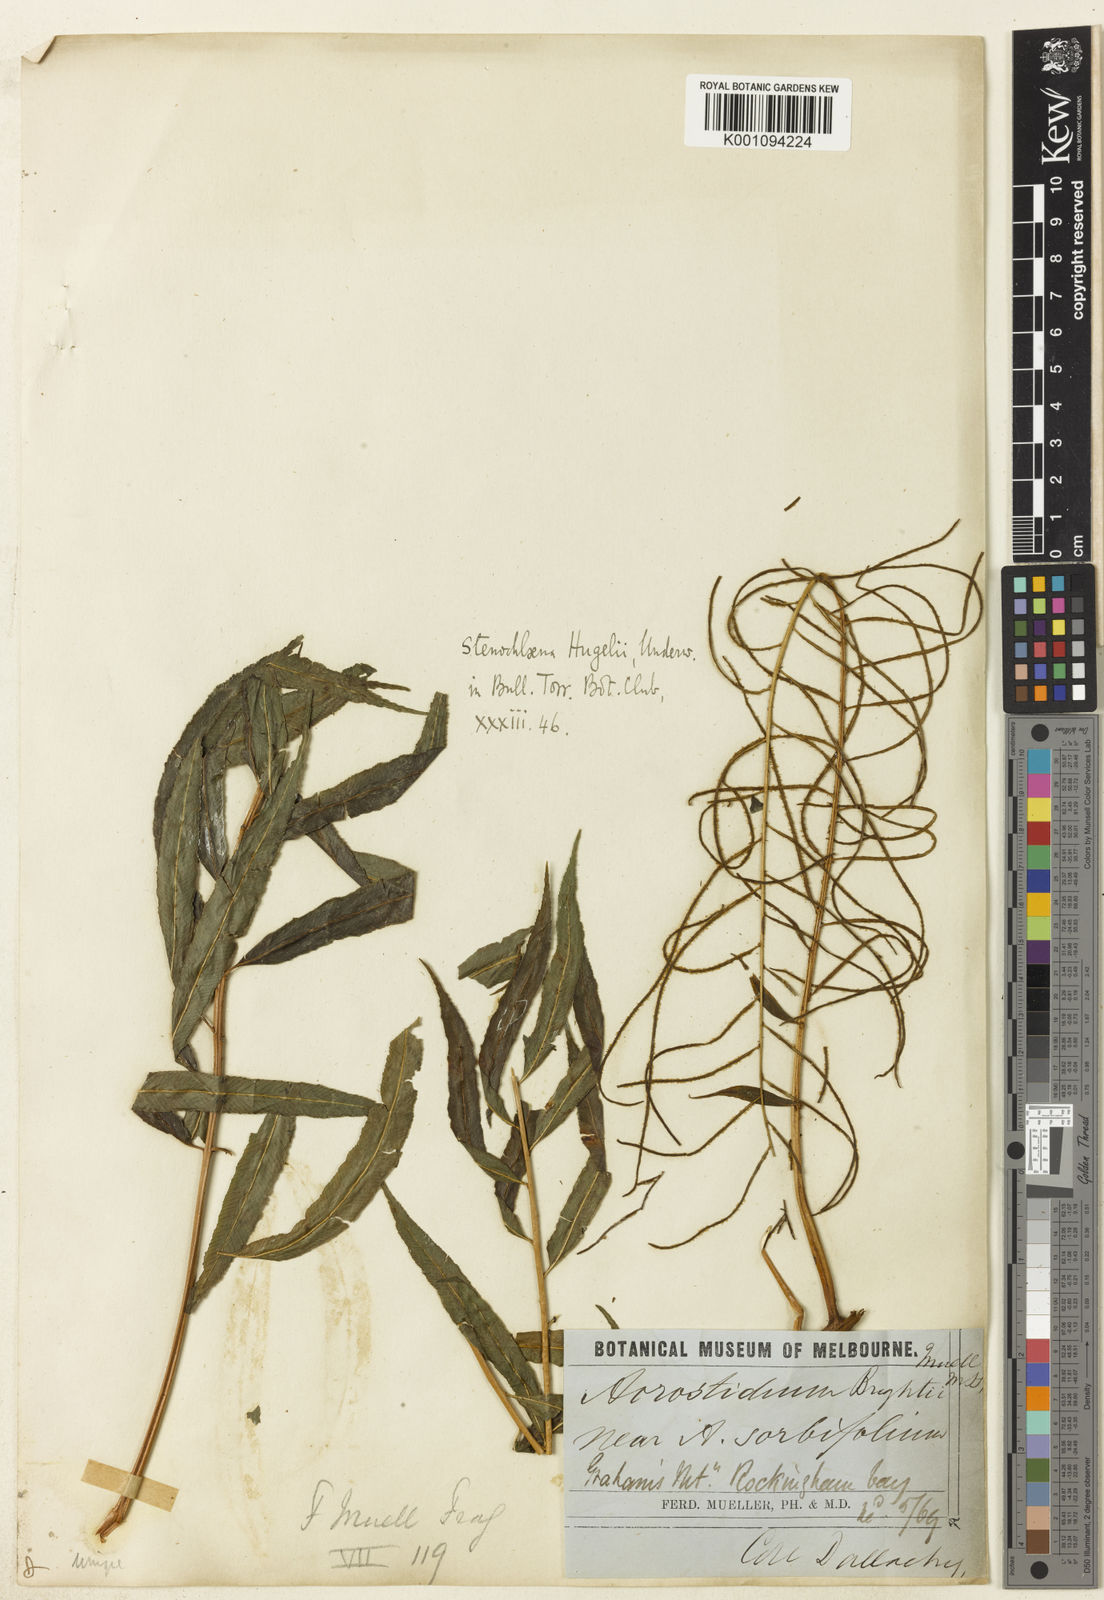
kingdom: Plantae
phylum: Tracheophyta
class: Polypodiopsida
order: Polypodiales
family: Dryopteridaceae
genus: Arthrobotrya
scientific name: Arthrobotrya brightiae
